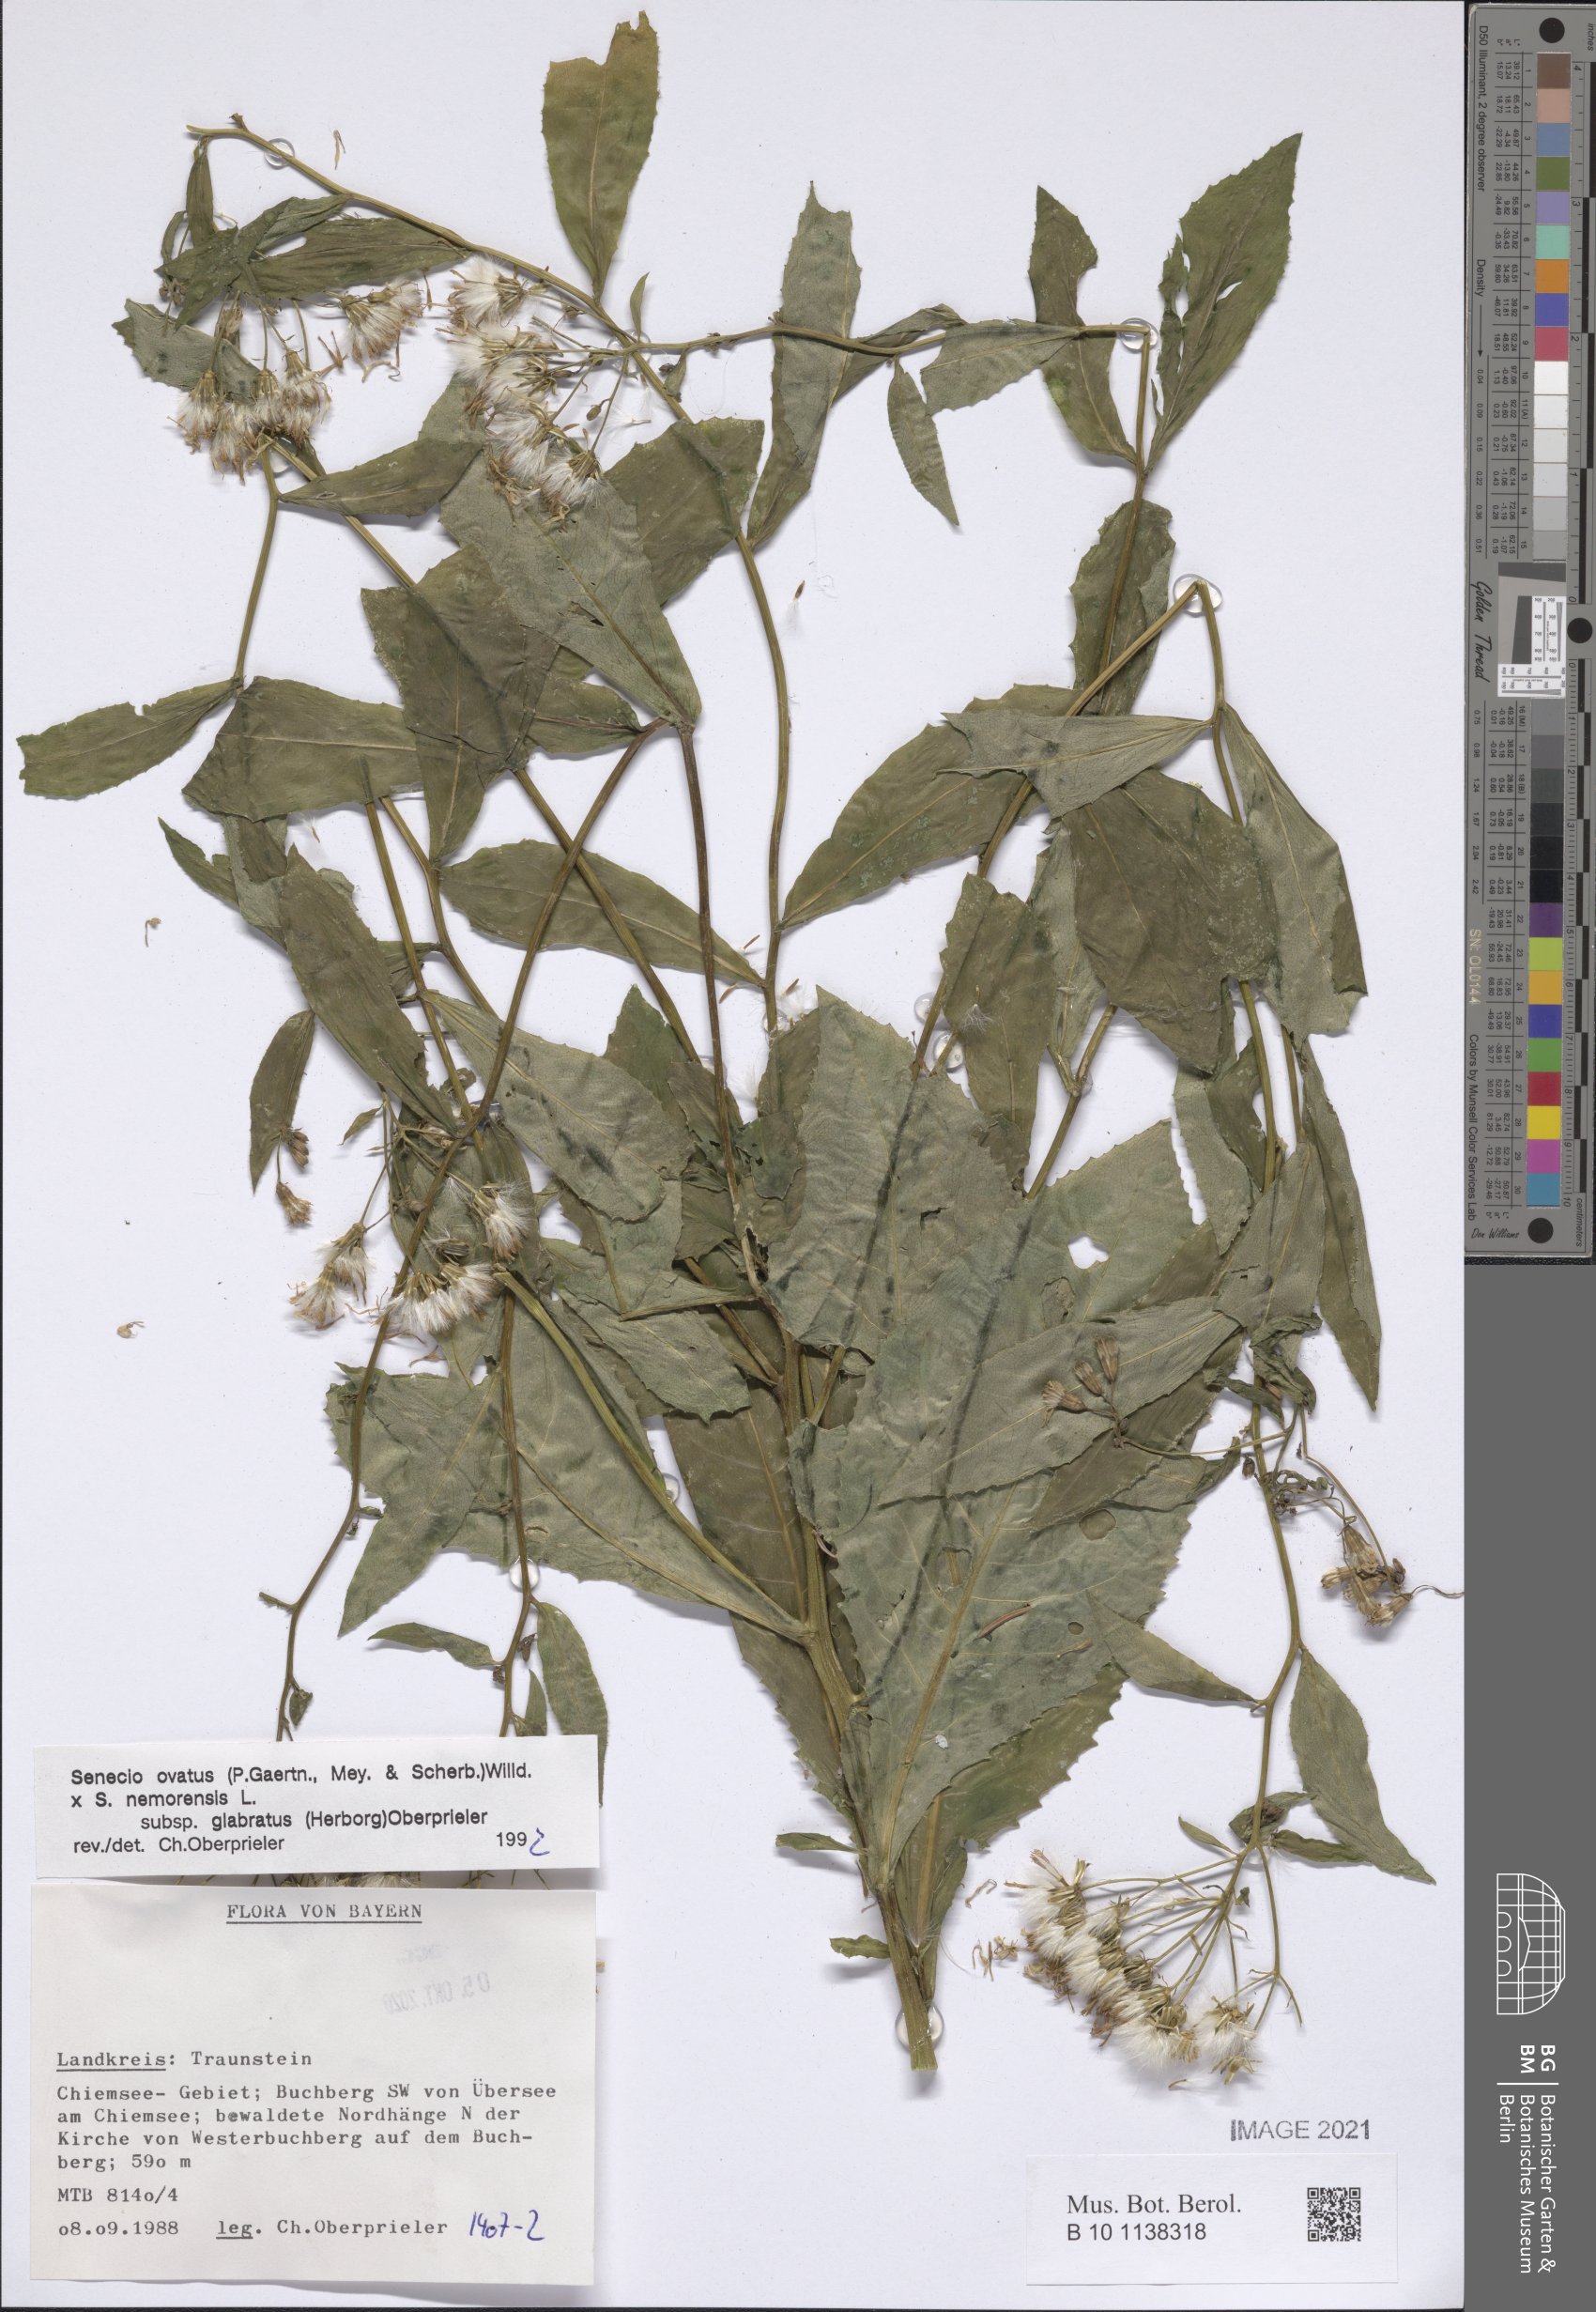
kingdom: Plantae
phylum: Tracheophyta
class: Magnoliopsida
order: Asterales
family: Asteraceae
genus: Senecio
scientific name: Senecio ovatus
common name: Wood ragwort
